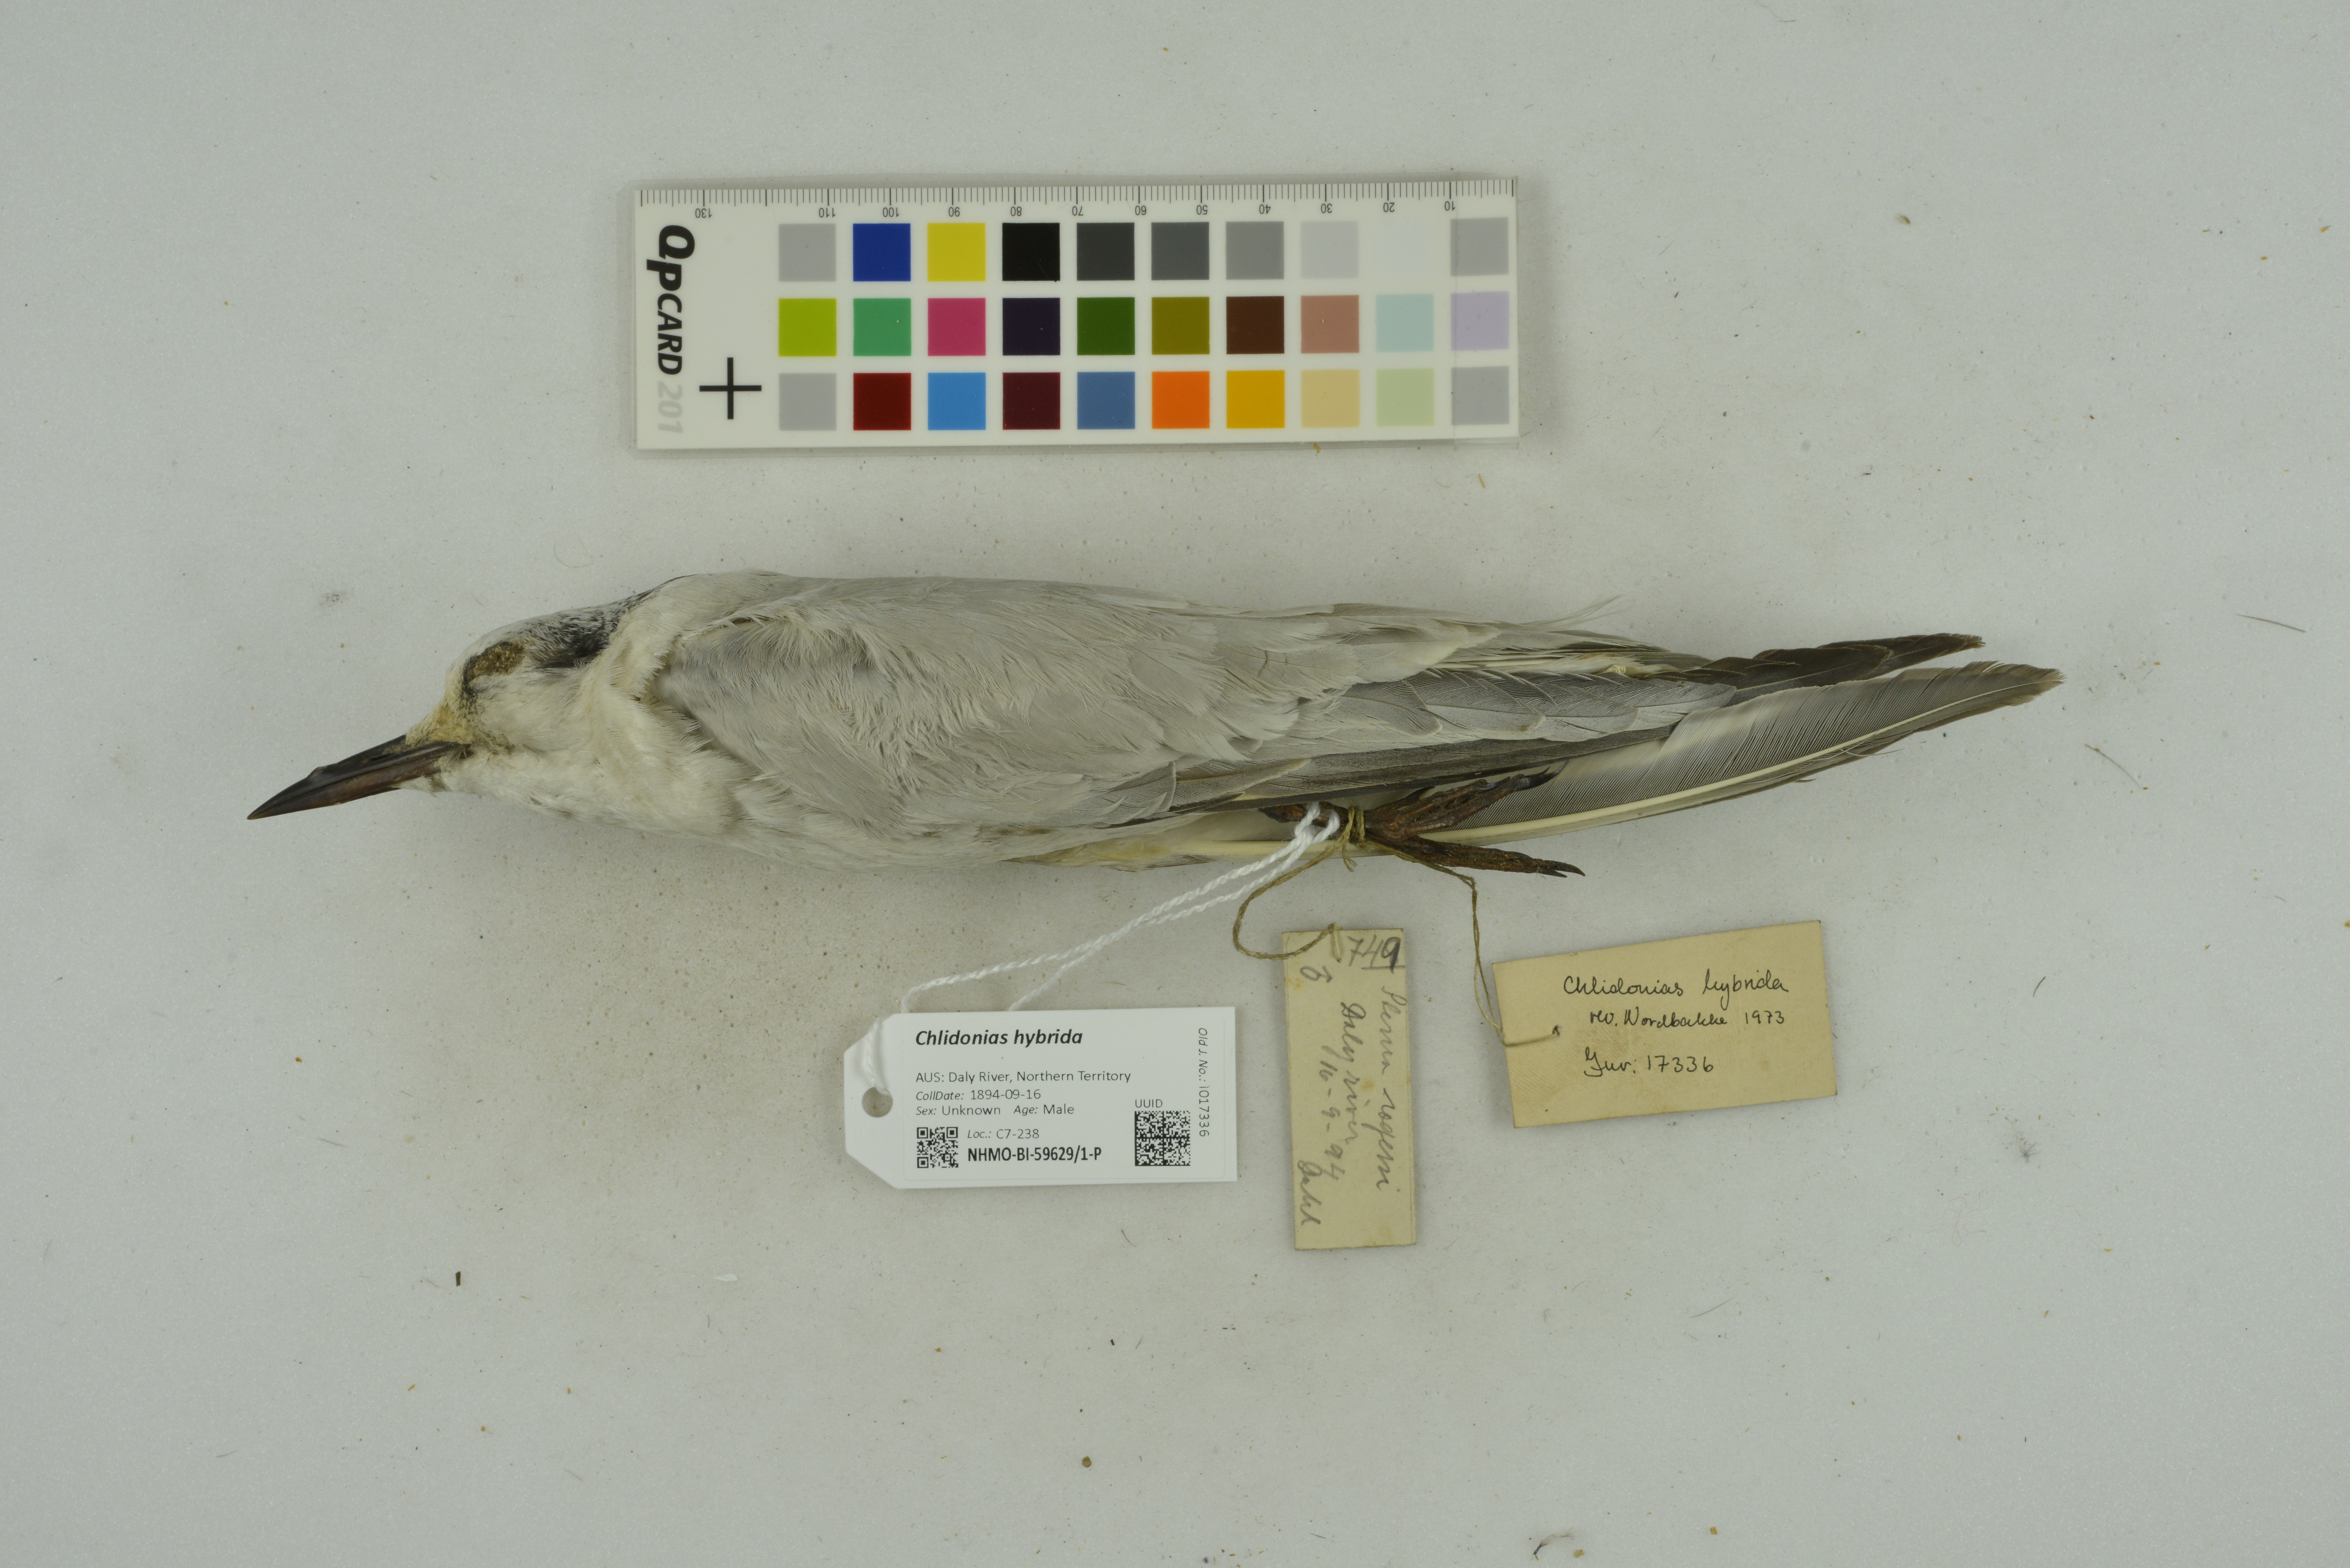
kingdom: Animalia
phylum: Chordata
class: Aves
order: Charadriiformes
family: Laridae
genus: Chlidonias
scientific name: Chlidonias hybrida
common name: Whiskered tern
